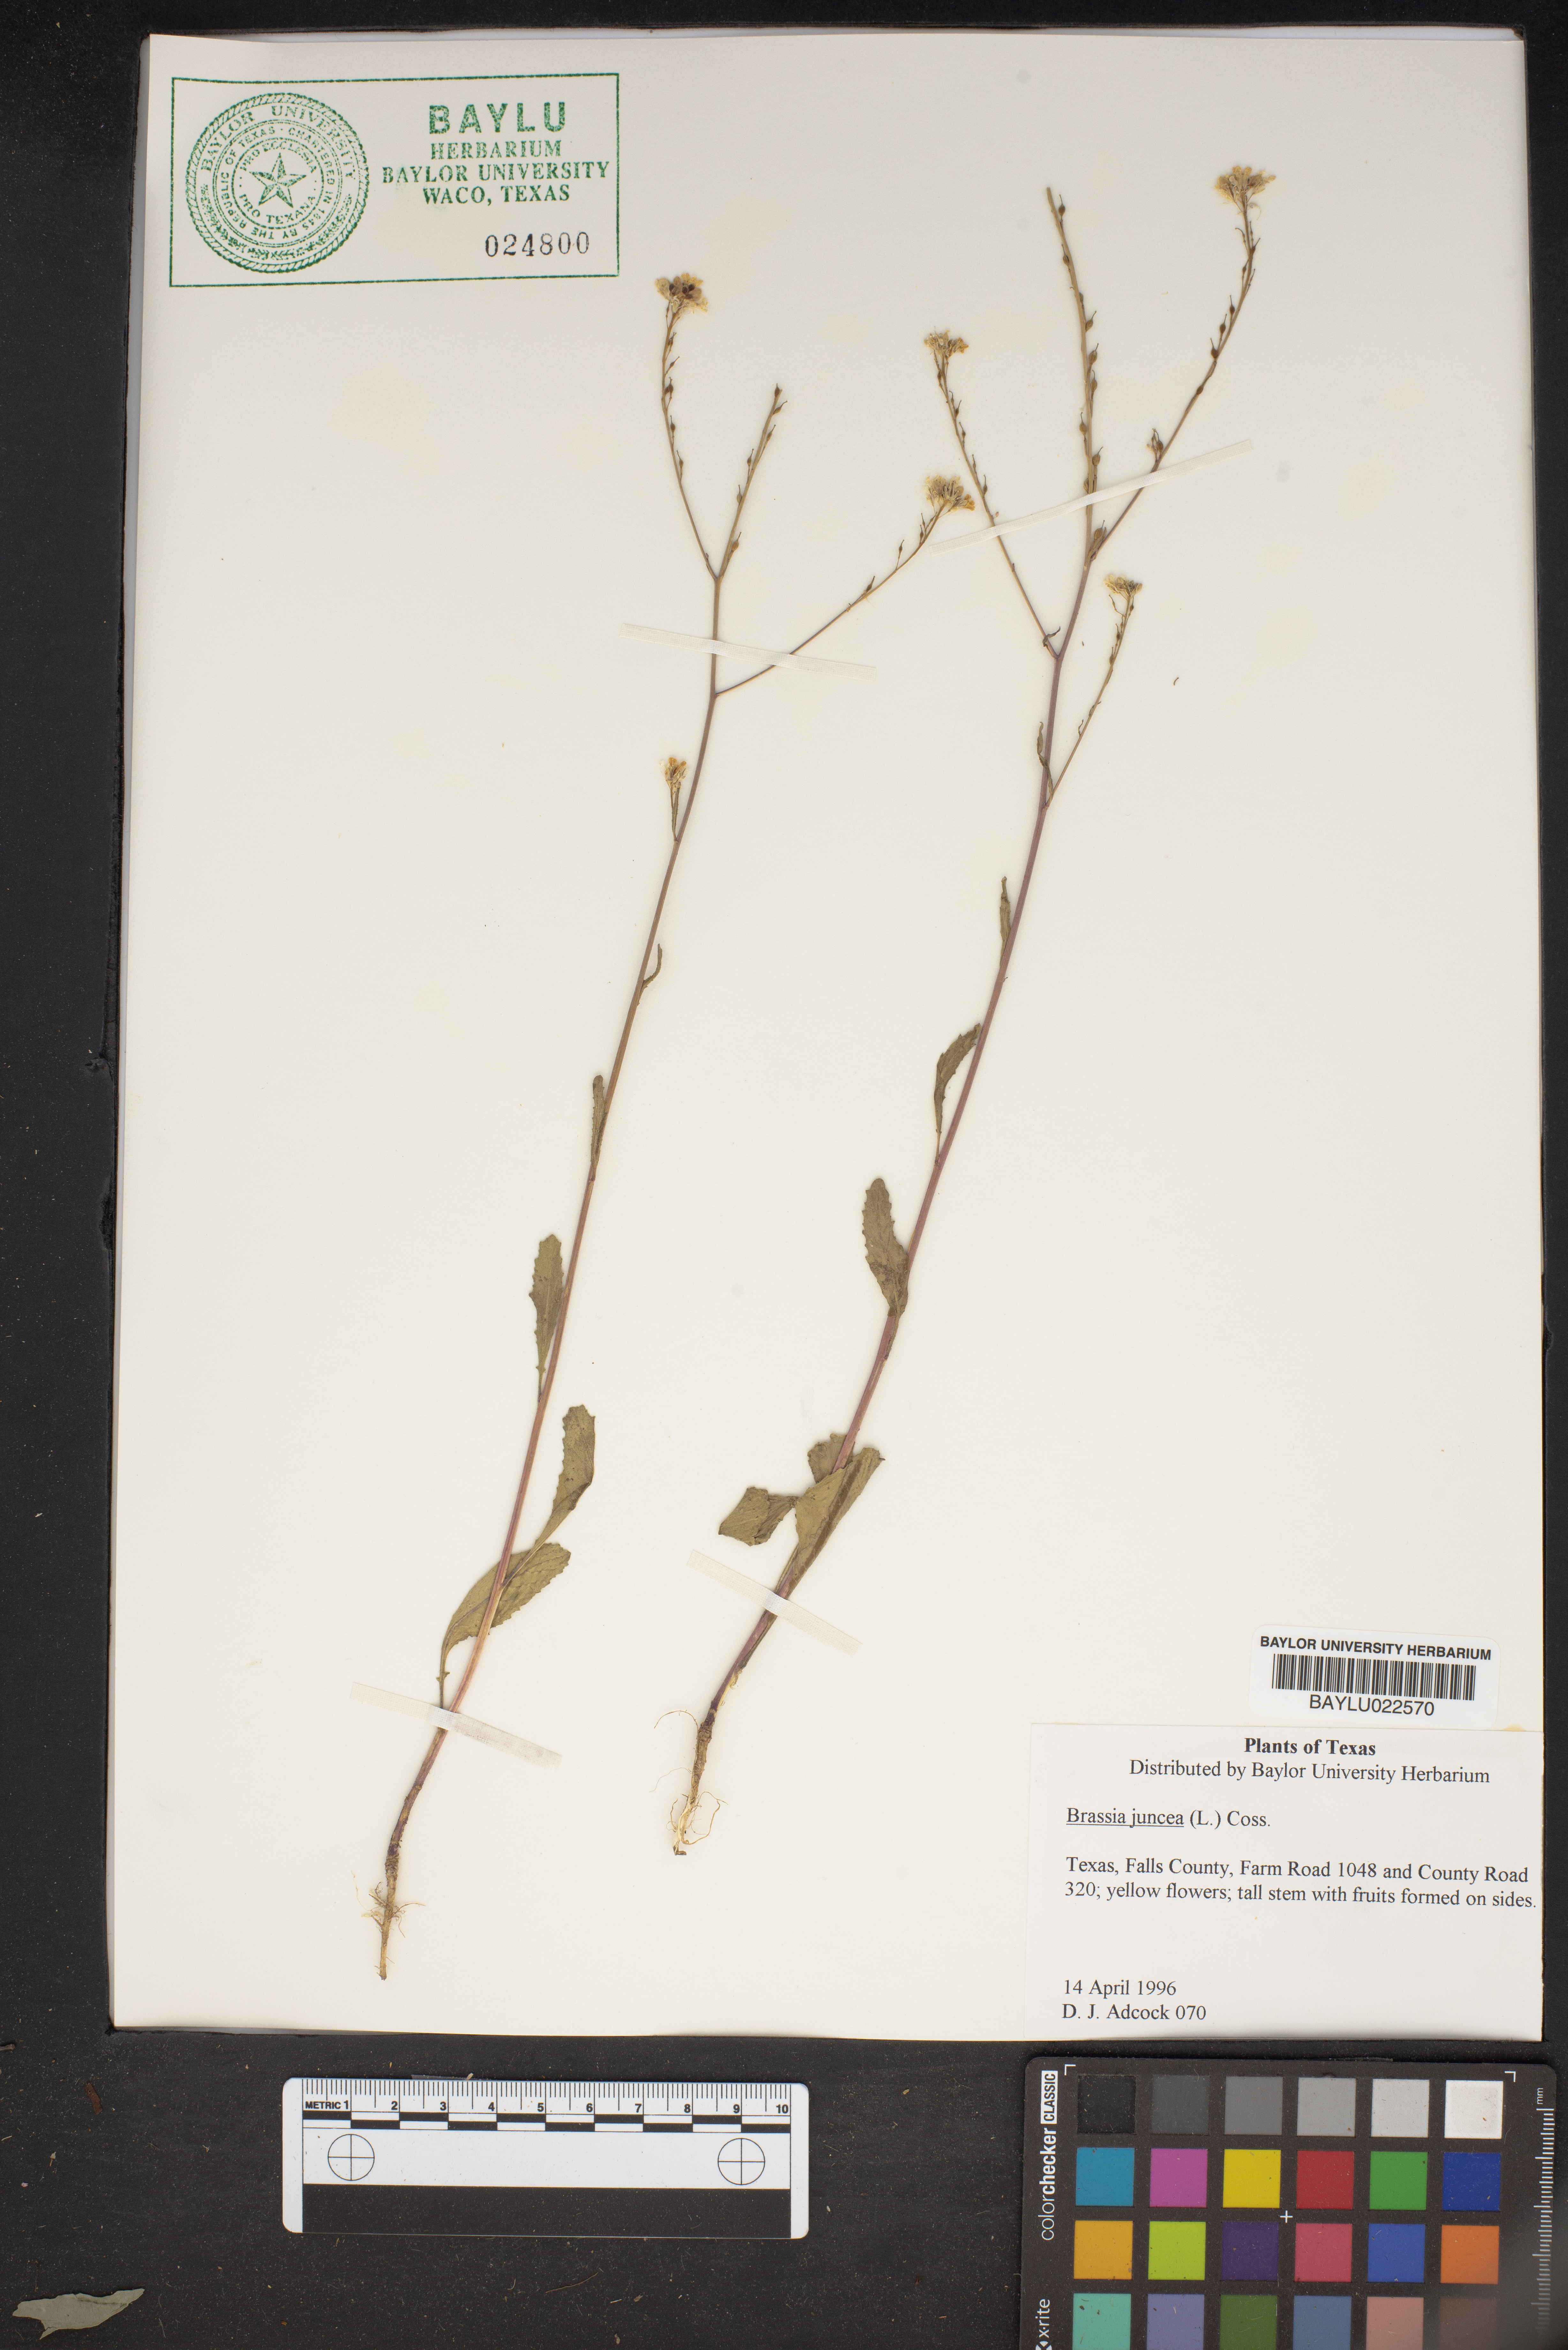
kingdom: Plantae
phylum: Tracheophyta
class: Magnoliopsida
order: Brassicales
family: Brassicaceae
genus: Brassica
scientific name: Brassica juncea
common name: Brown mustard
